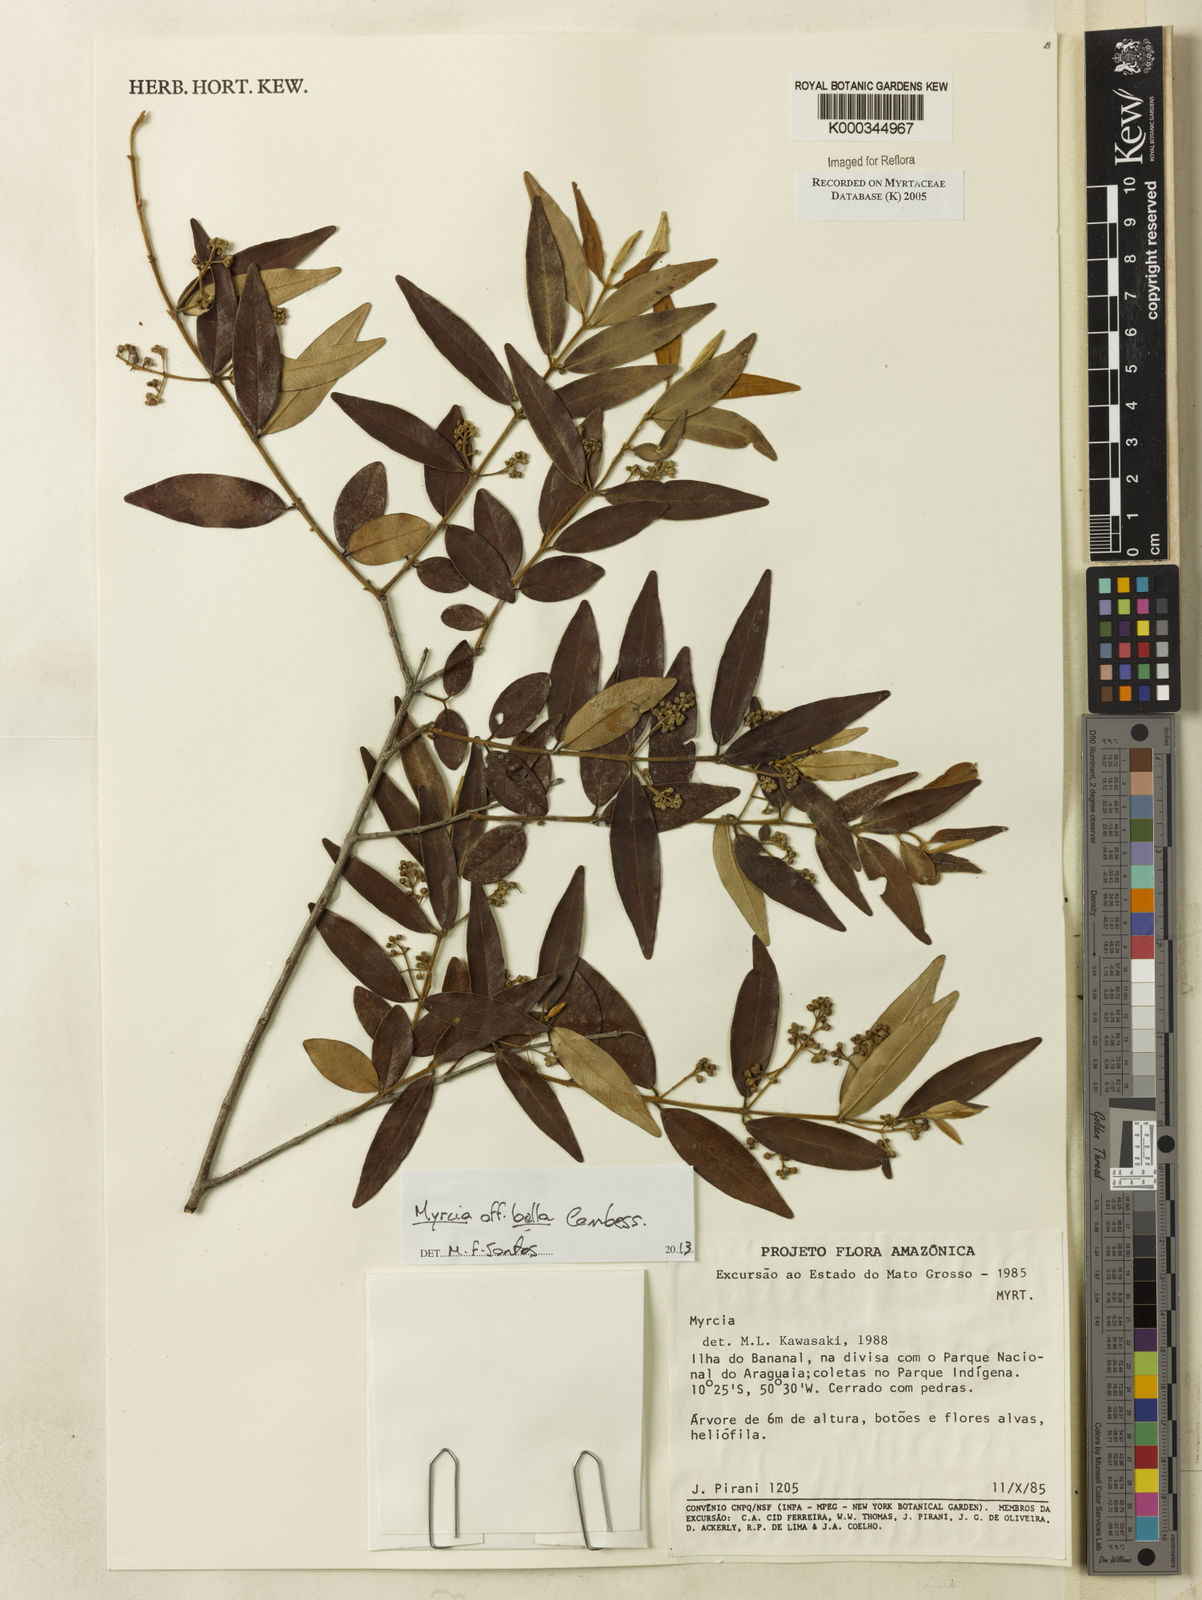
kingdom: Plantae
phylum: Tracheophyta
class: Magnoliopsida
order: Myrtales
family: Myrtaceae
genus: Myrcia
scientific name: Myrcia
